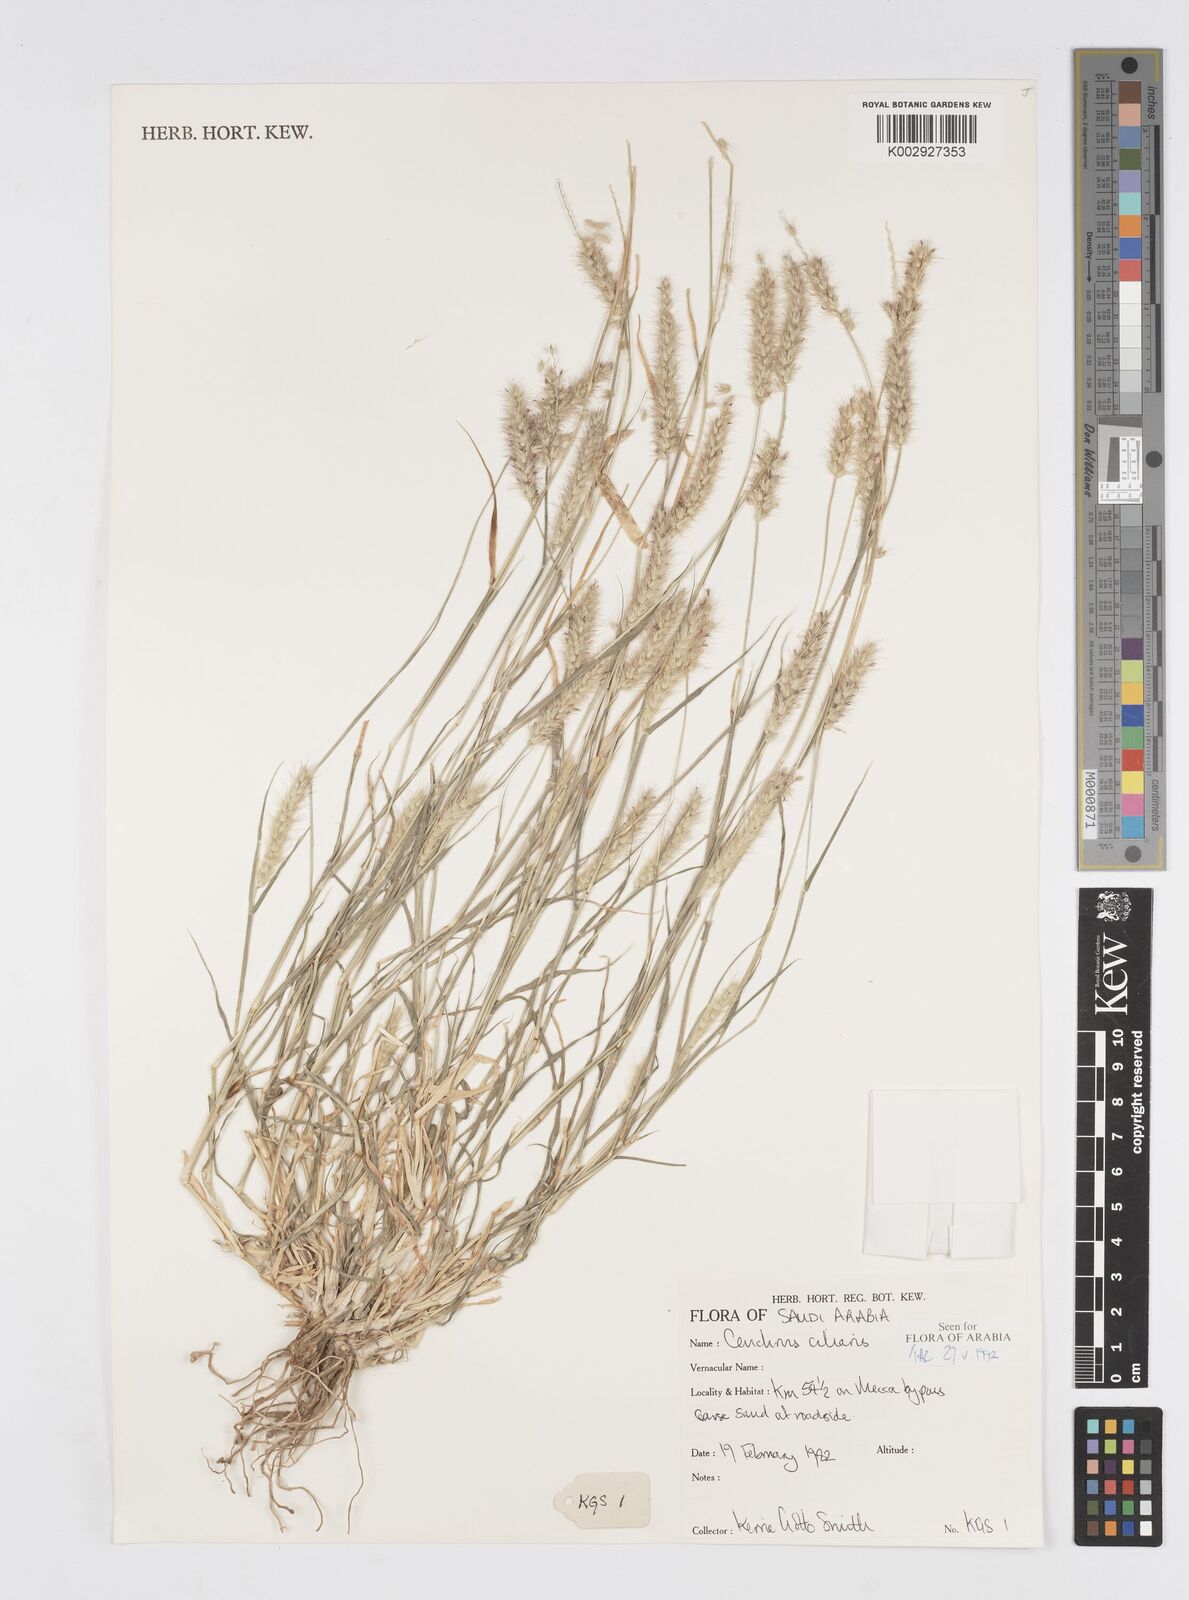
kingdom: Plantae
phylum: Tracheophyta
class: Liliopsida
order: Poales
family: Poaceae
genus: Cenchrus
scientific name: Cenchrus ciliaris
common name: Buffelgrass
